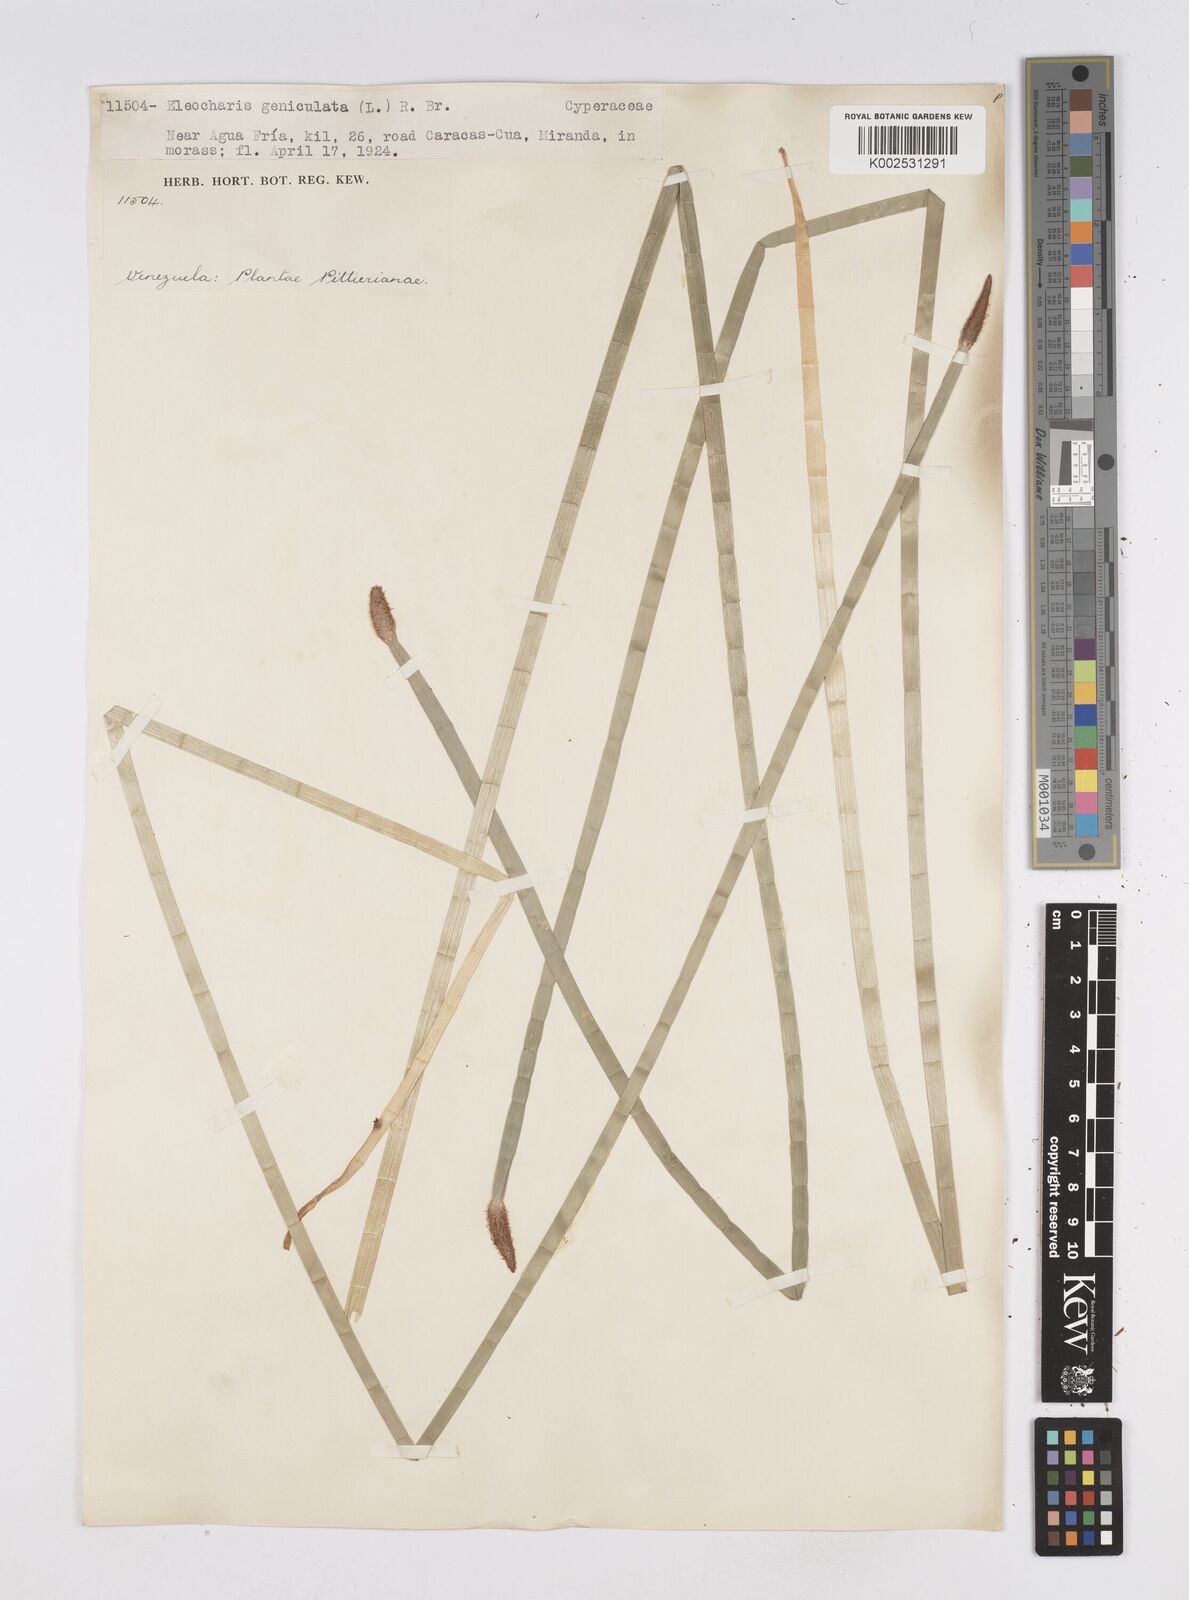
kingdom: Plantae
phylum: Tracheophyta
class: Liliopsida
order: Poales
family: Cyperaceae
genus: Eleocharis
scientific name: Eleocharis elegans
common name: Elegant spike-rush
